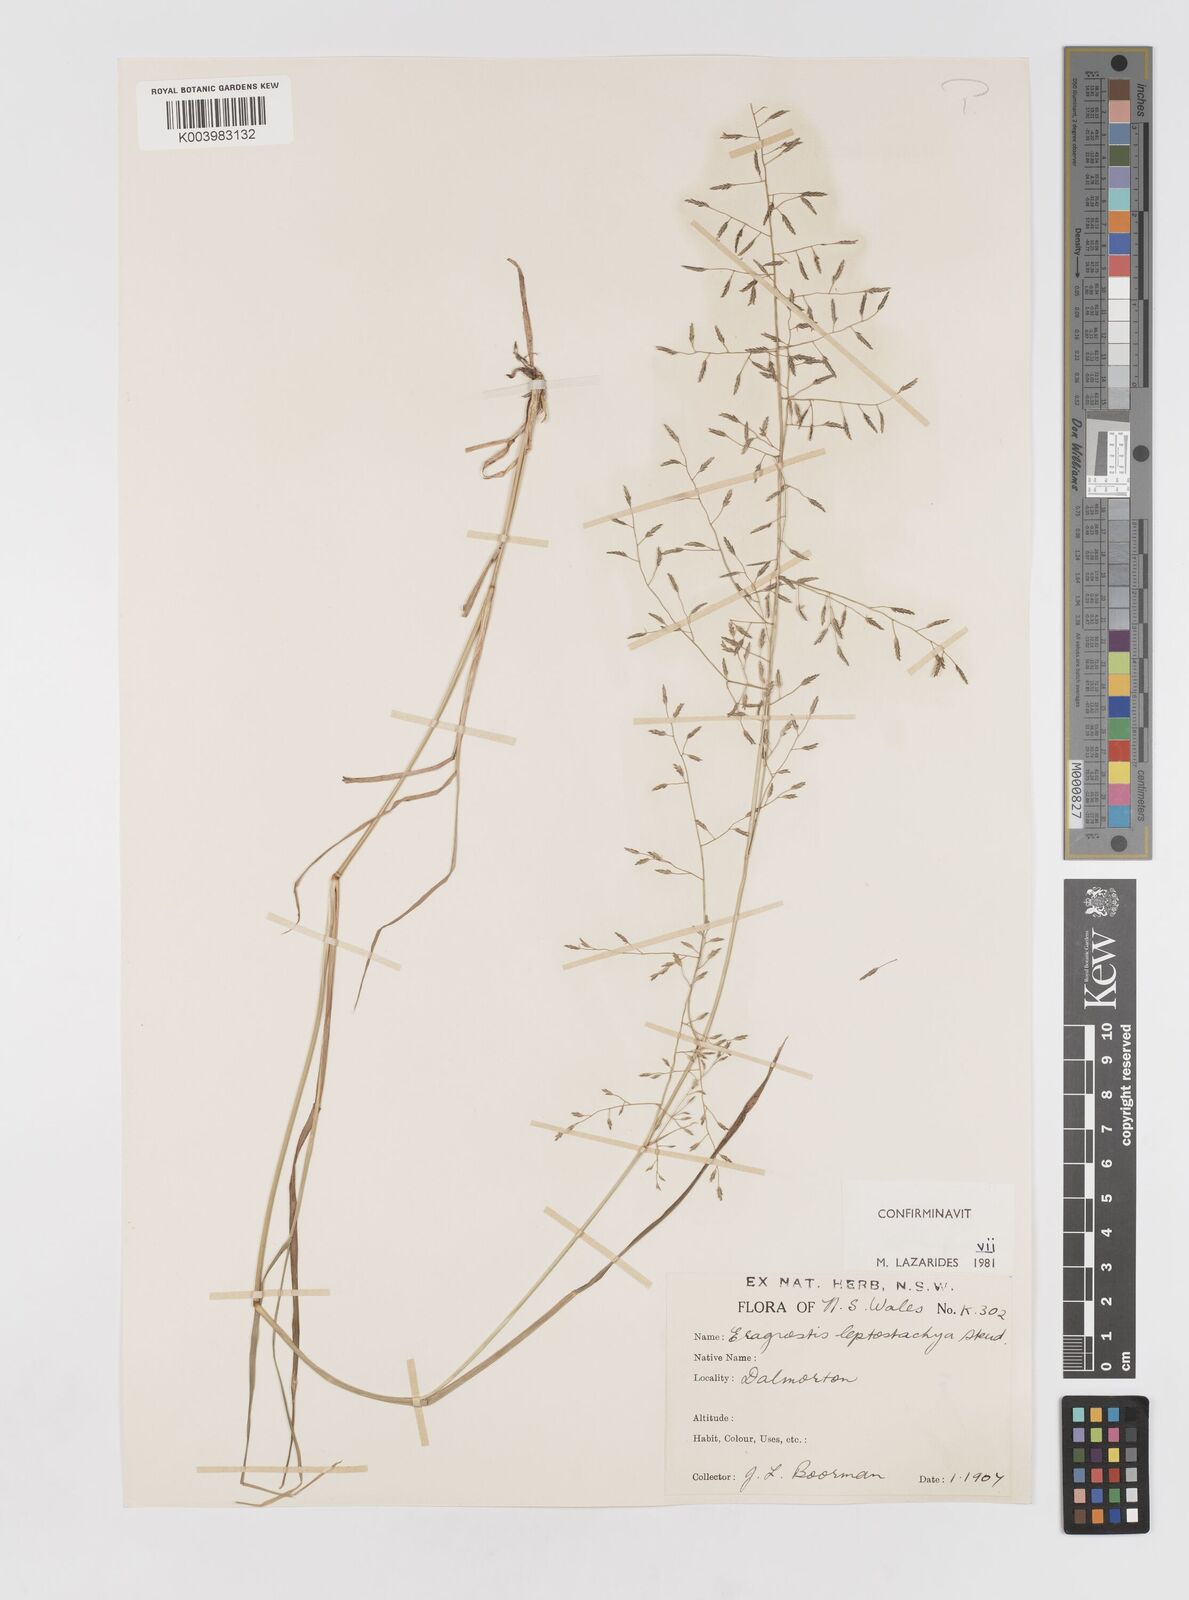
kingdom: Plantae
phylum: Tracheophyta
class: Liliopsida
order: Poales
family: Poaceae
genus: Eragrostis
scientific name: Eragrostis leptostachya
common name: Australian lovegrass
